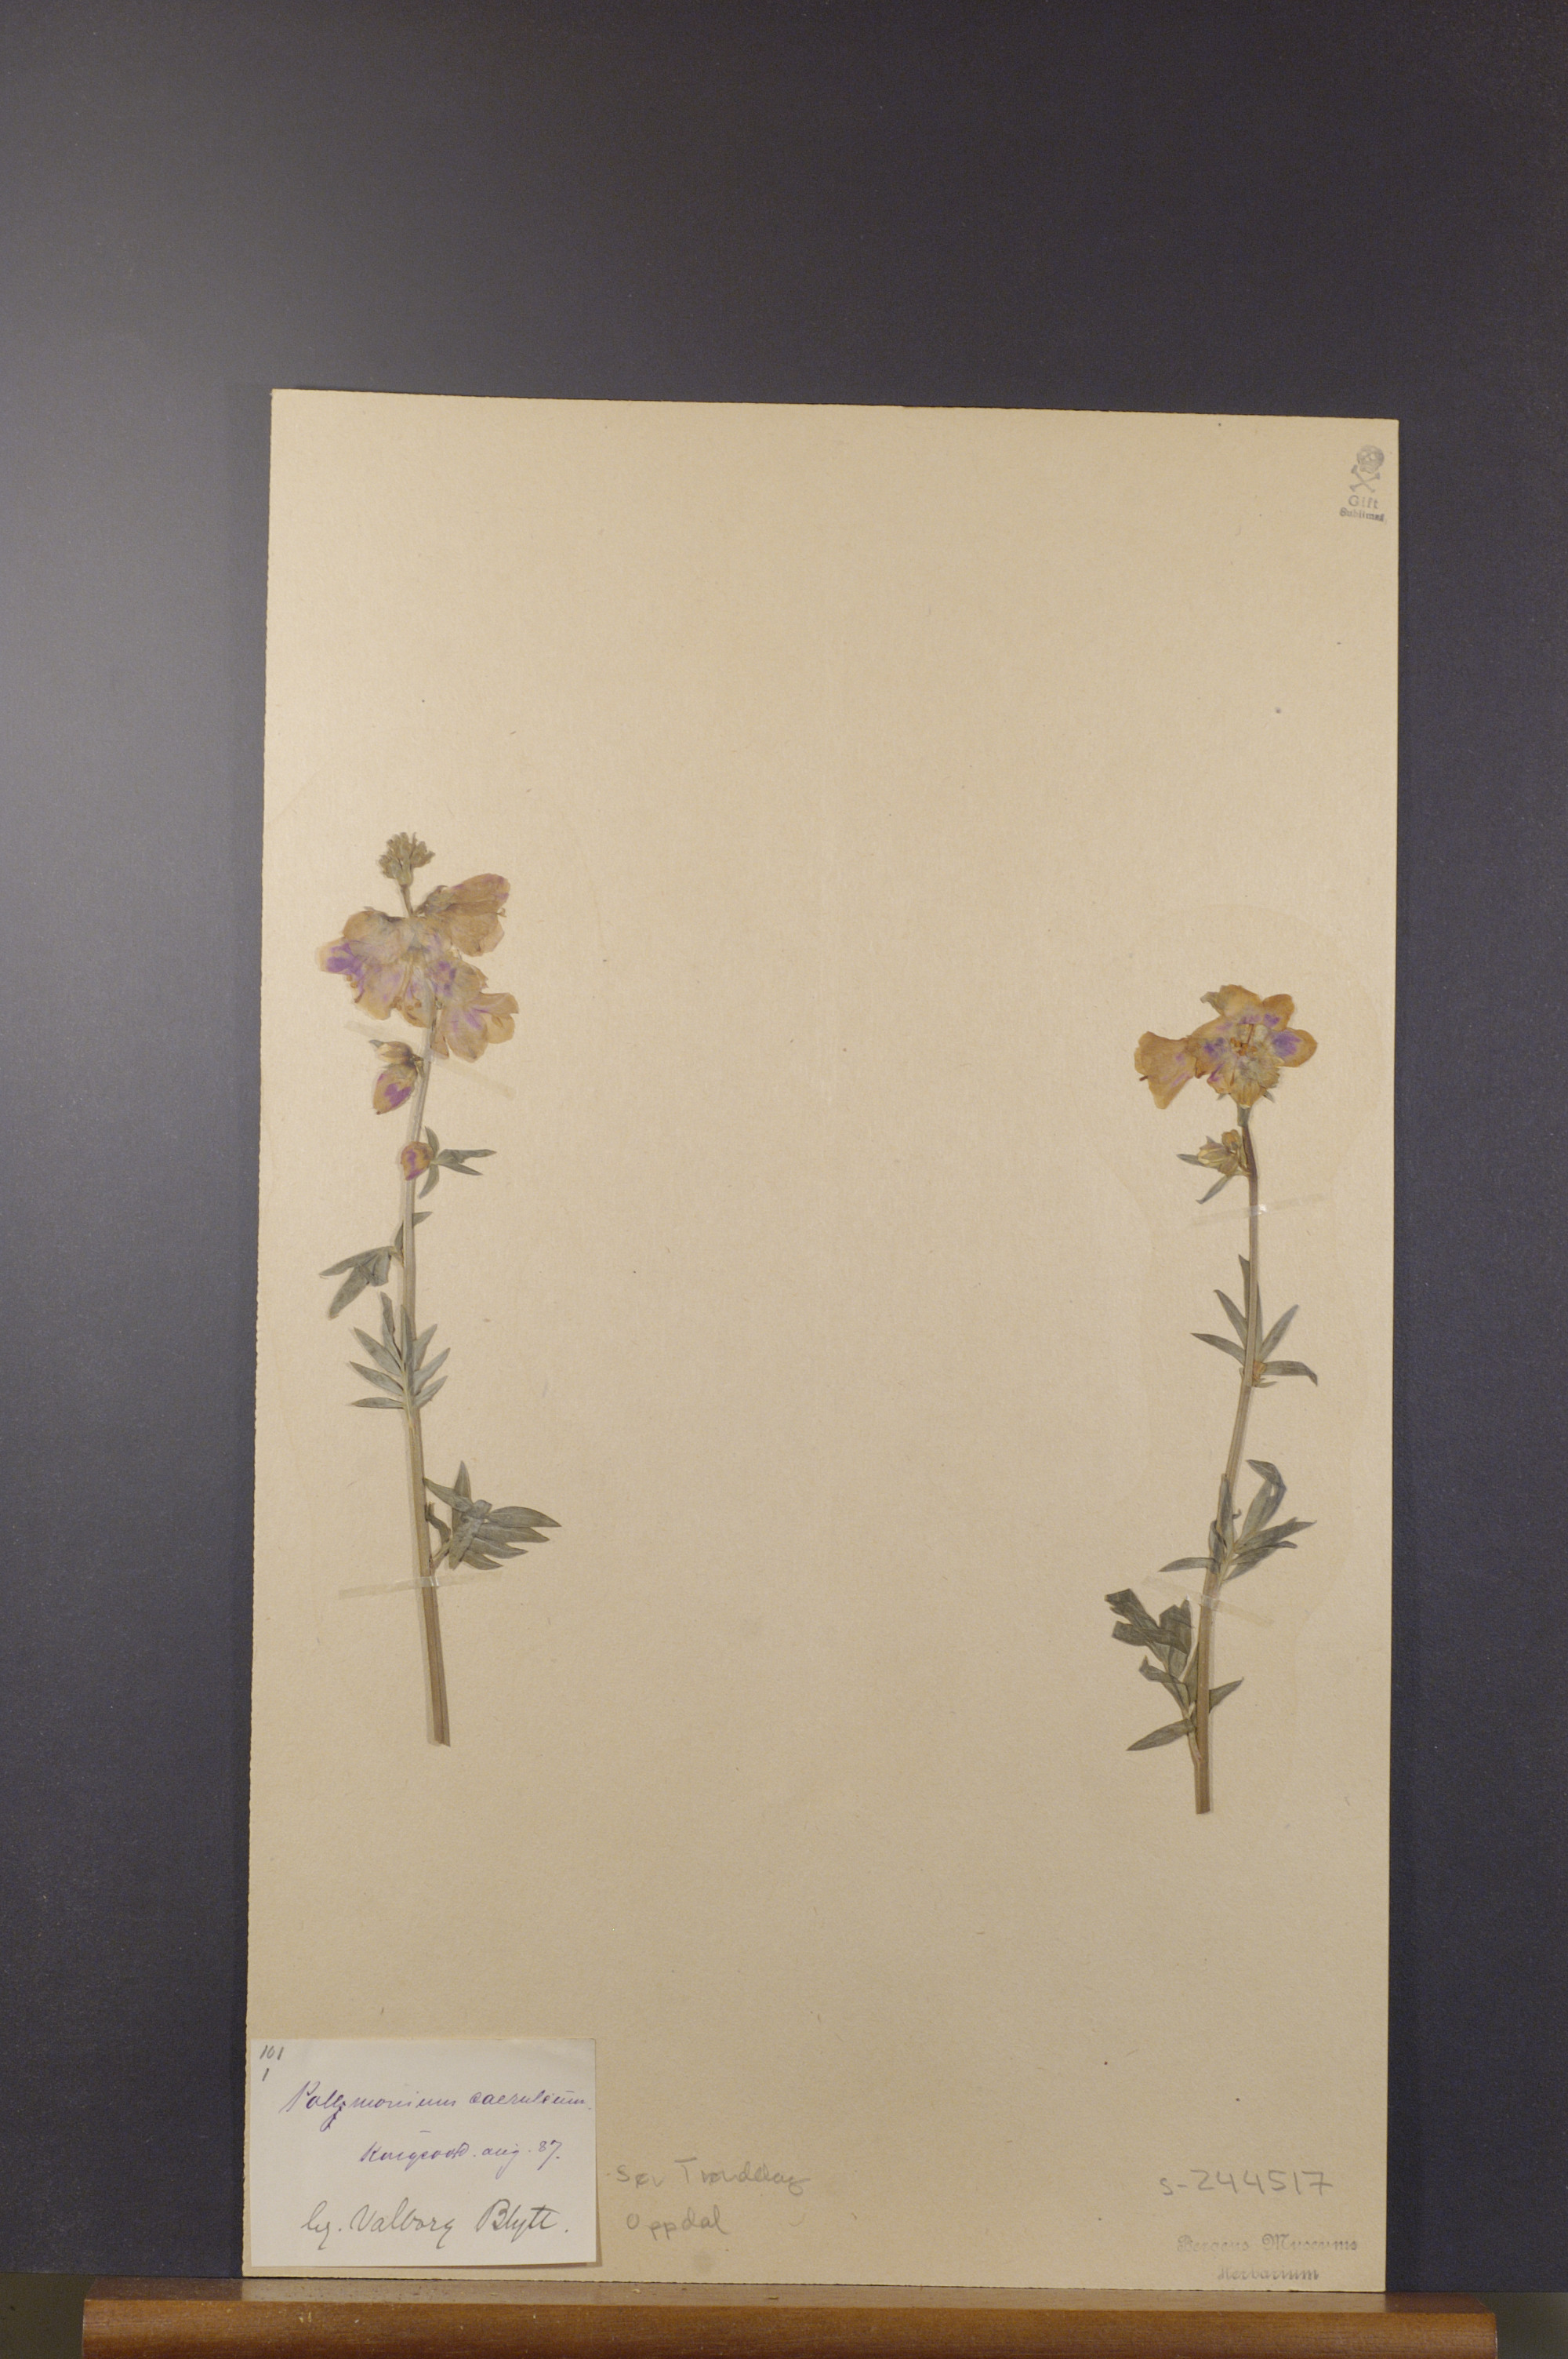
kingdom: Plantae
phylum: Tracheophyta
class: Magnoliopsida
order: Ericales
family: Polemoniaceae
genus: Polemonium
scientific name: Polemonium caeruleum
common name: Jacob's-ladder
